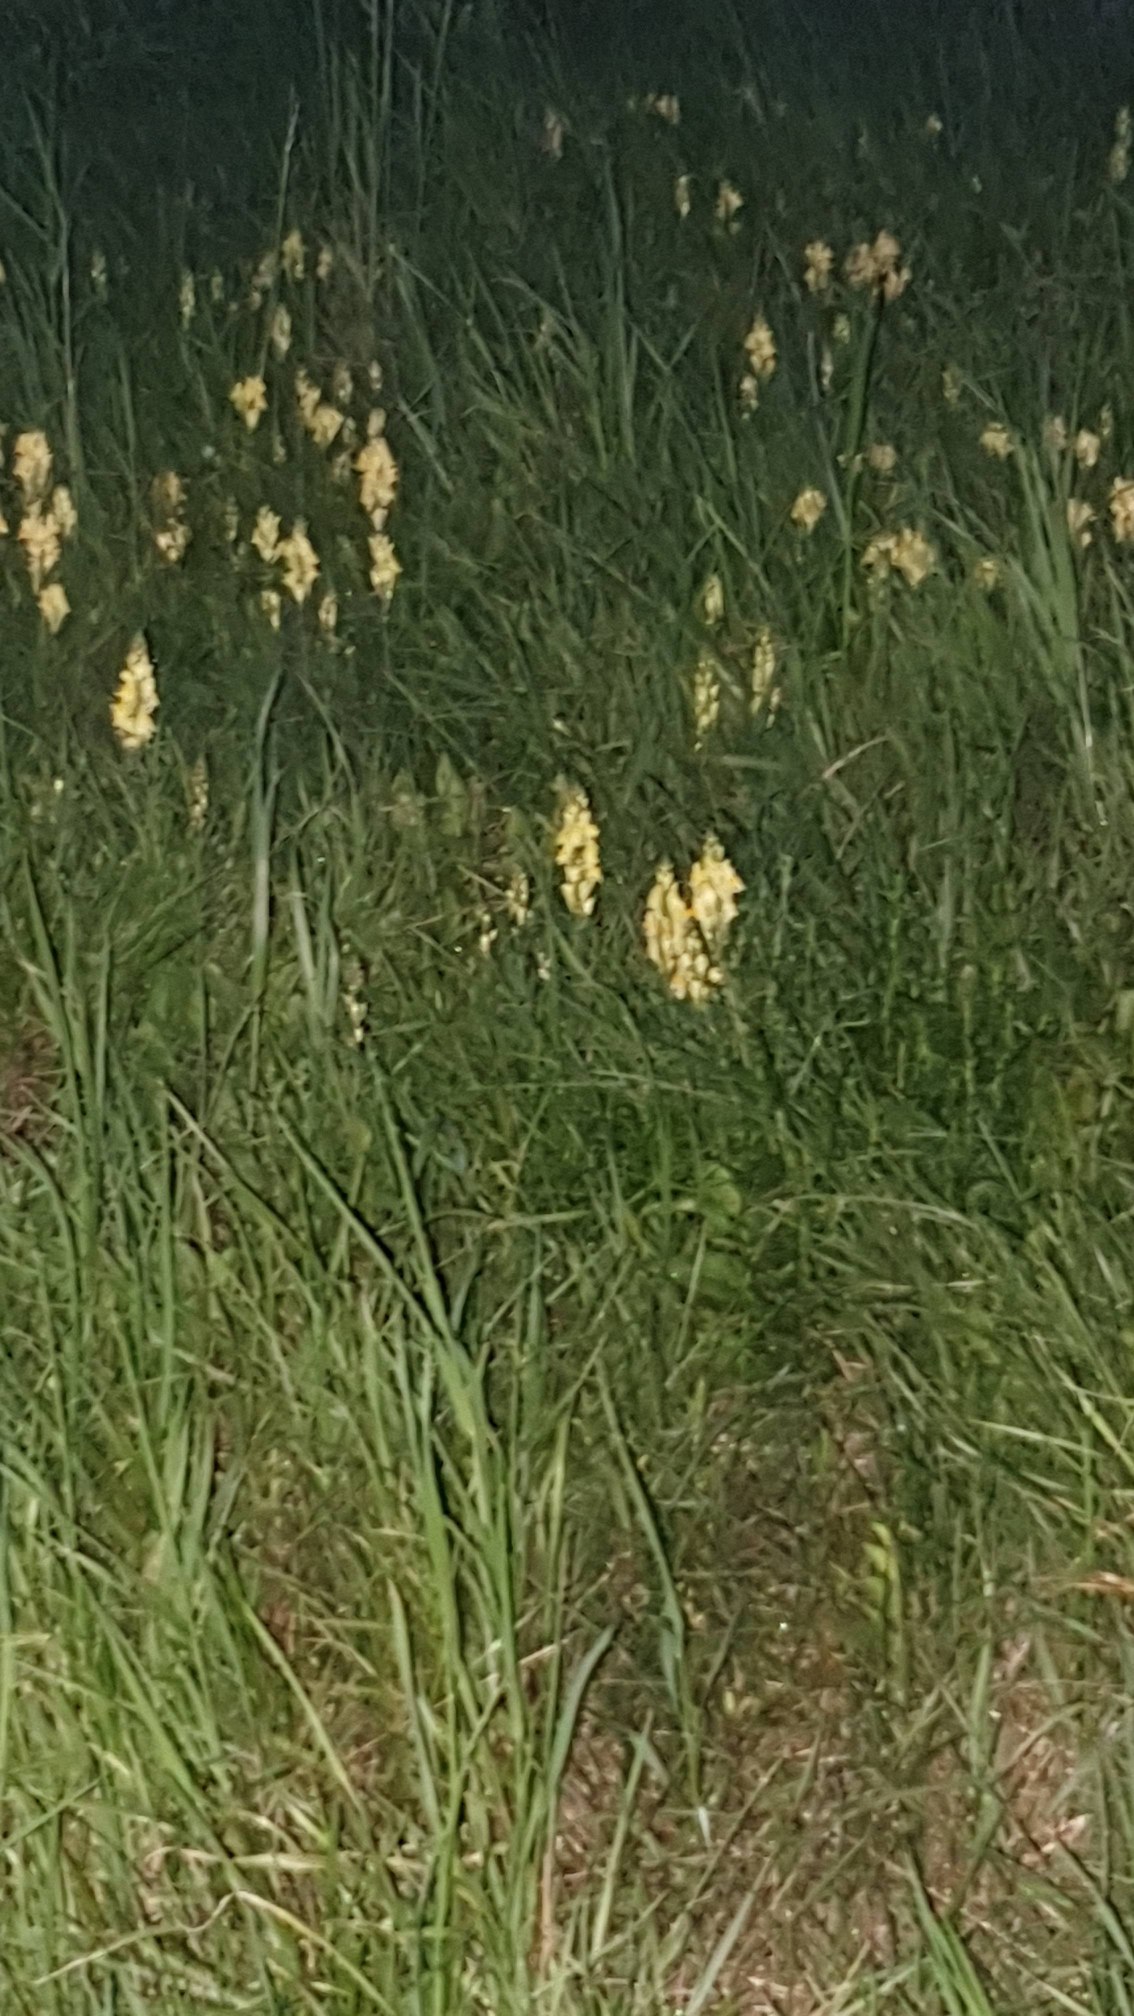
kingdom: Plantae
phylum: Tracheophyta
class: Magnoliopsida
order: Lamiales
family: Plantaginaceae
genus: Linaria
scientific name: Linaria vulgaris
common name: Almindelig torskemund
